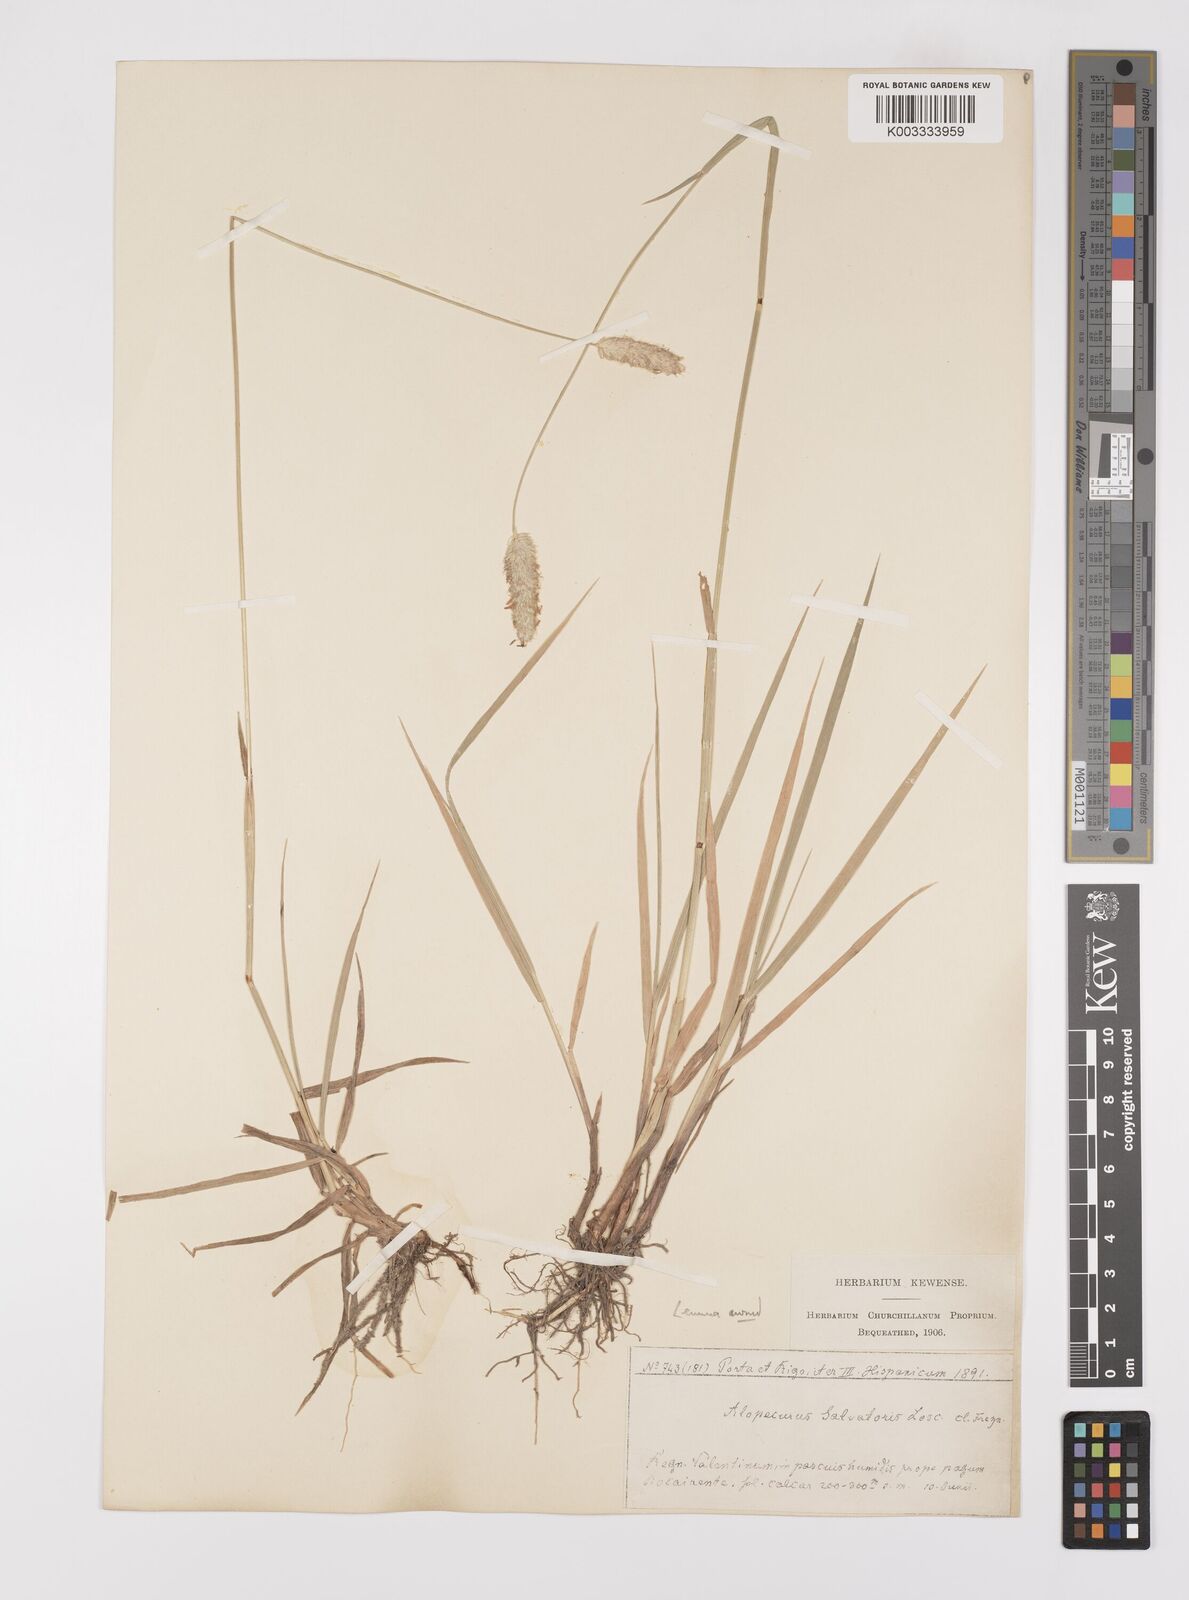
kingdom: Plantae
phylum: Tracheophyta
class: Liliopsida
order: Poales
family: Poaceae
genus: Alopecurus
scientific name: Alopecurus arundinaceus
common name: Creeping meadow foxtail
